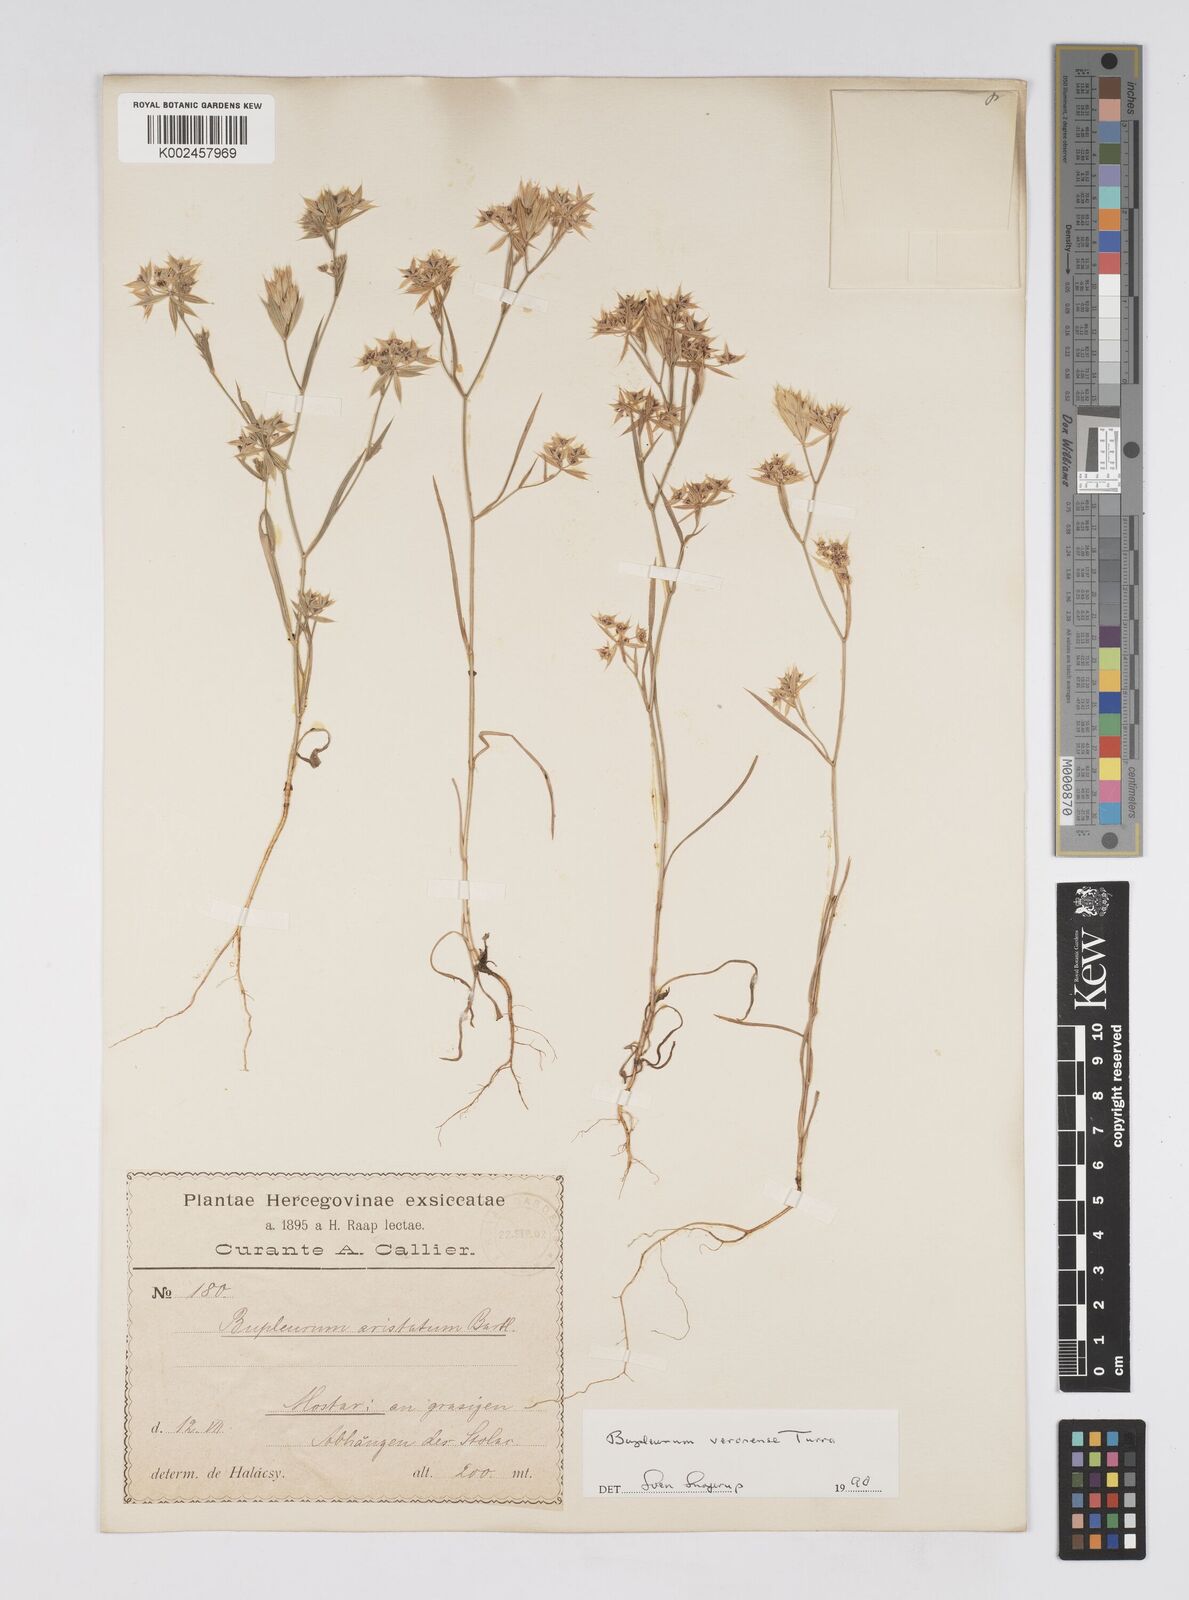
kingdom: Plantae
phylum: Tracheophyta
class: Magnoliopsida
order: Apiales
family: Apiaceae
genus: Bupleurum
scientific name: Bupleurum glumaceum
